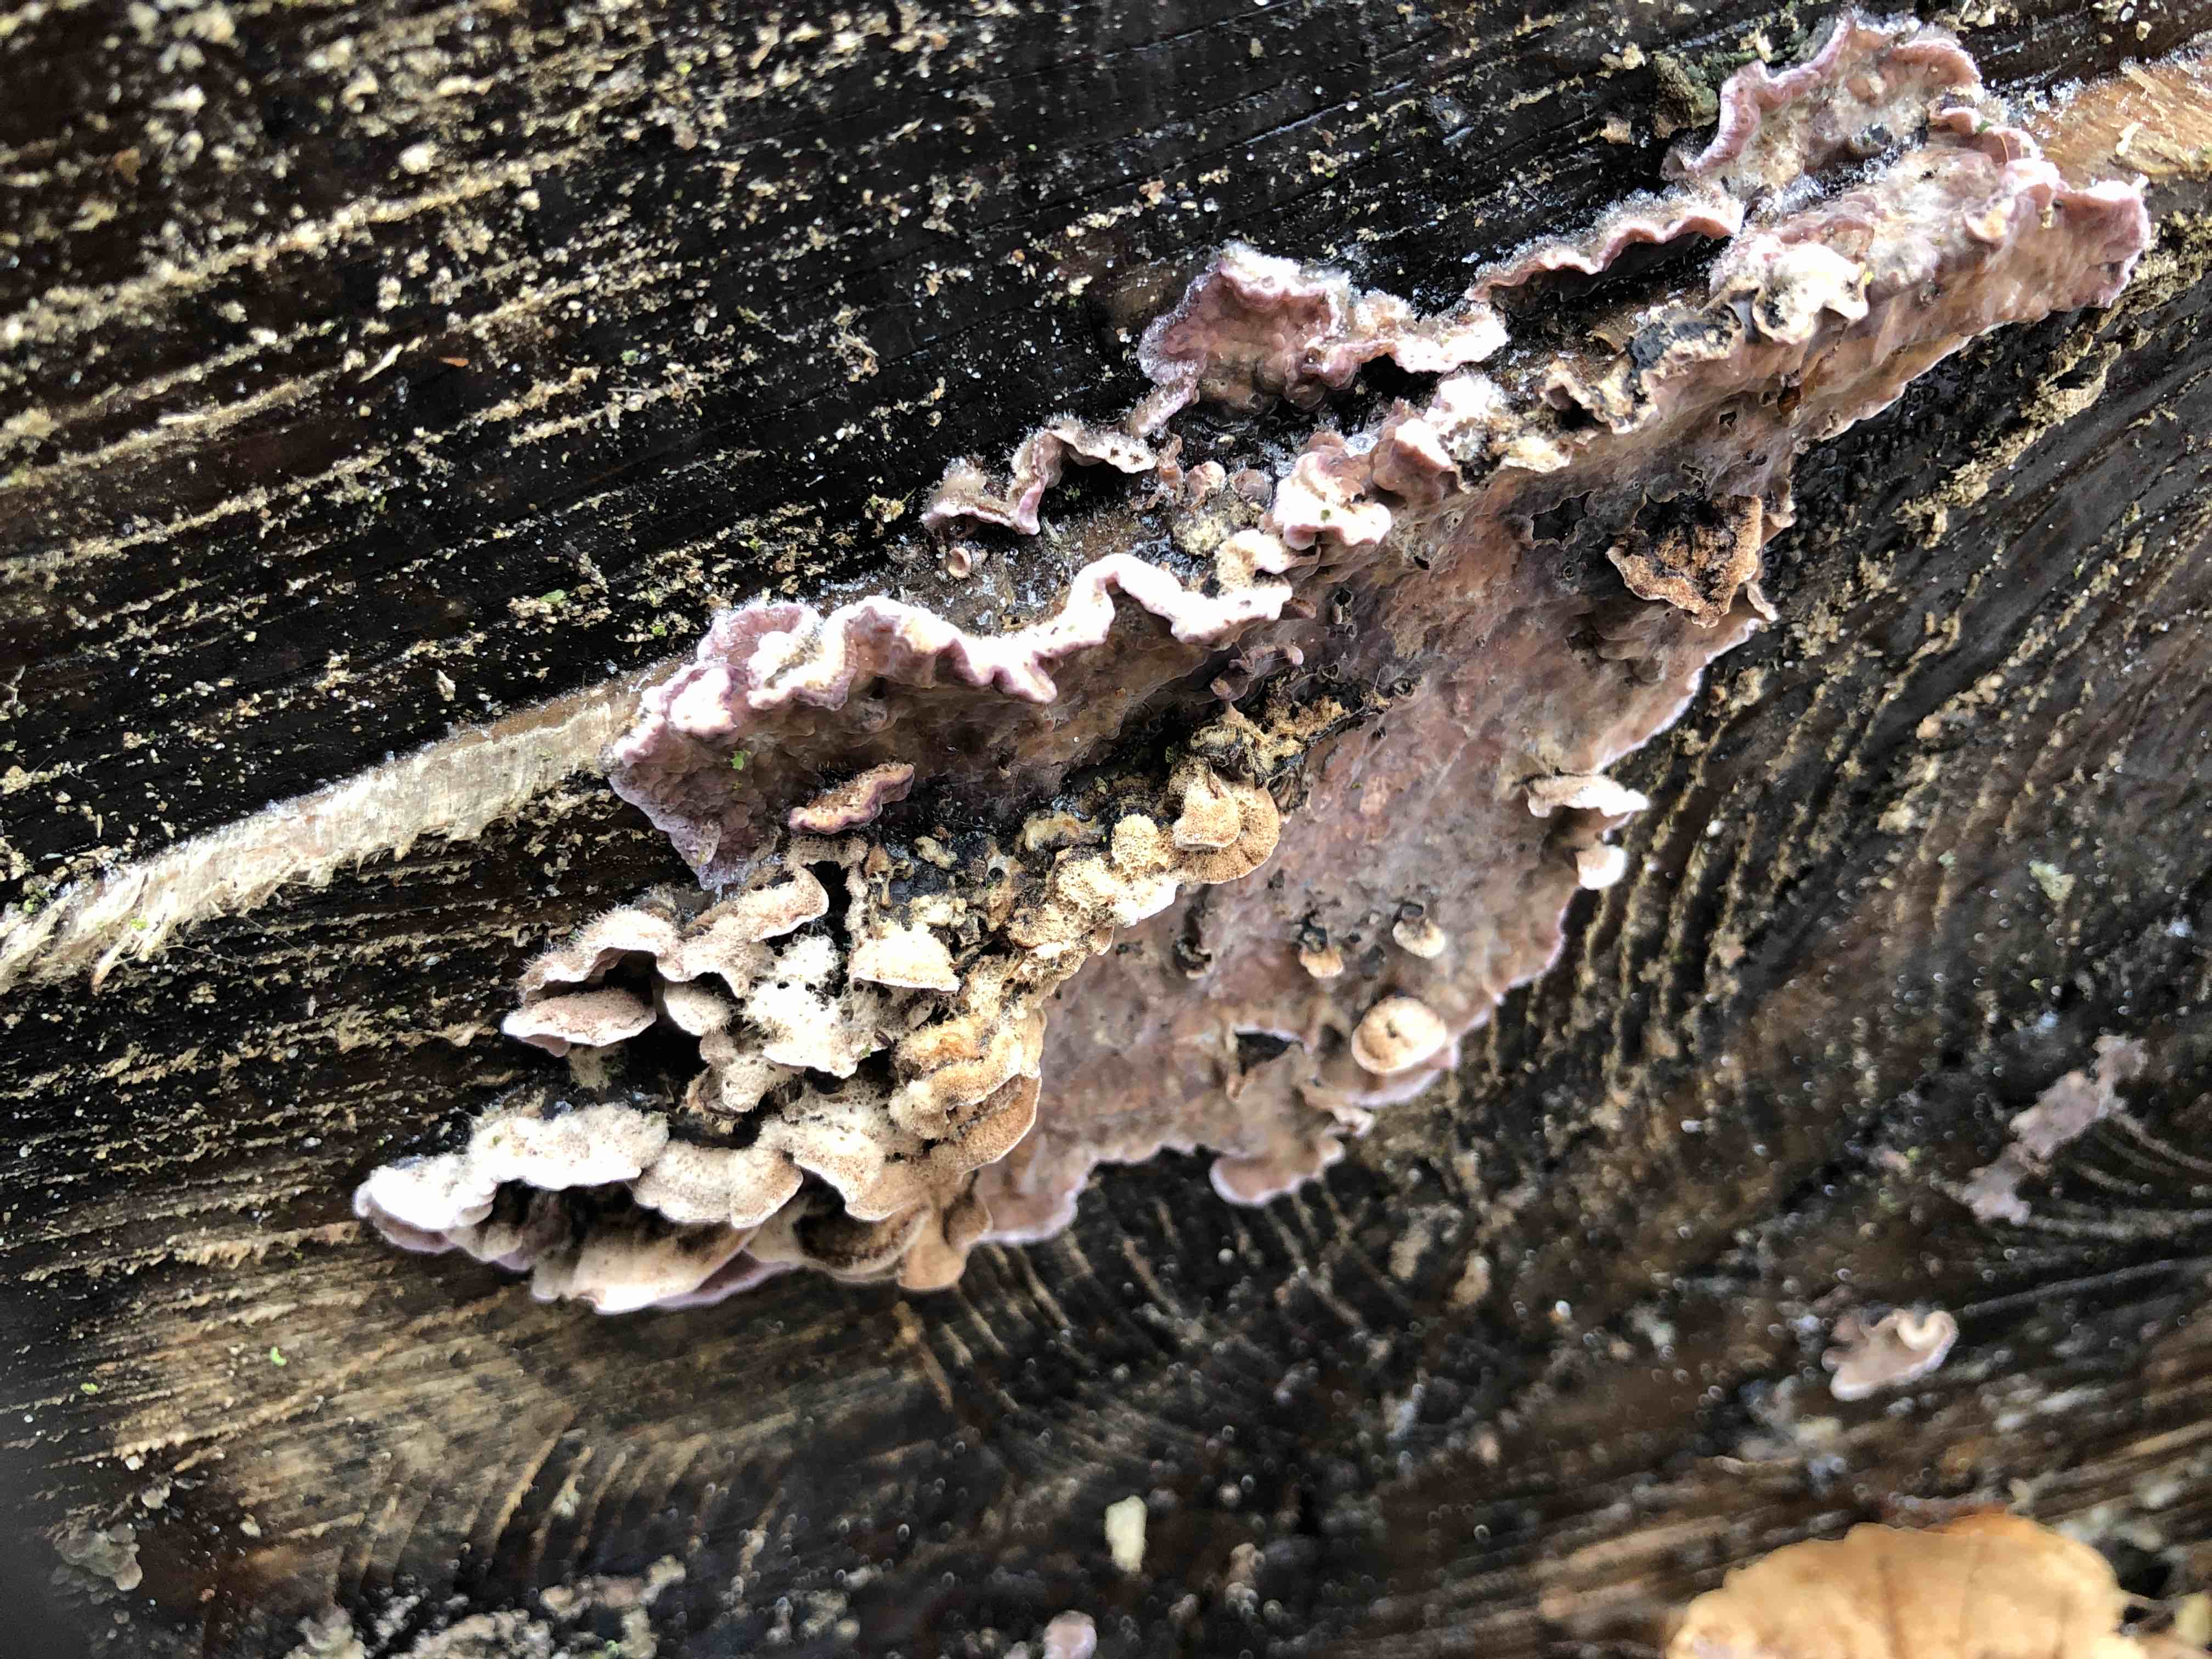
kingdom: Fungi
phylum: Basidiomycota
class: Agaricomycetes
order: Agaricales
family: Cyphellaceae
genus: Chondrostereum
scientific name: Chondrostereum purpureum
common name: purpurlædersvamp
